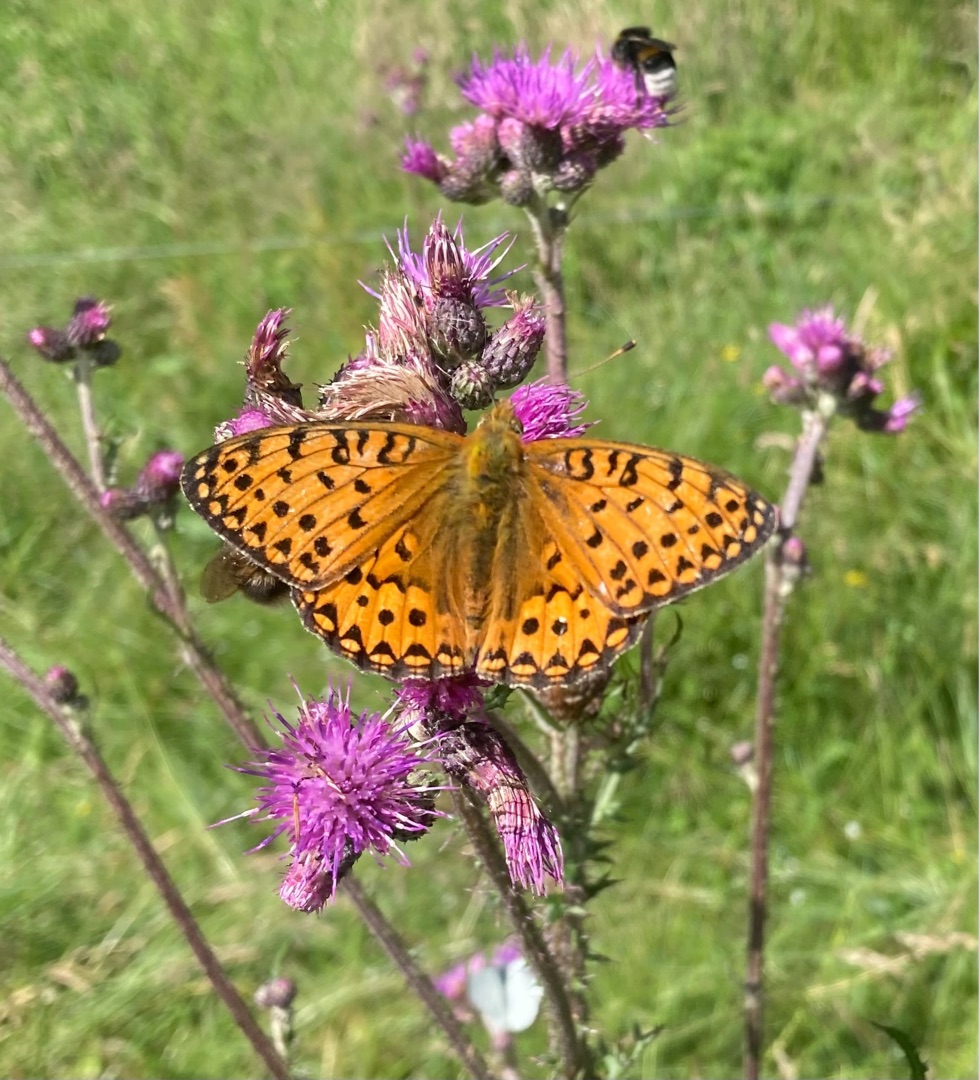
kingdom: Animalia
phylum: Arthropoda
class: Insecta
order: Lepidoptera
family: Nymphalidae
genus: Speyeria
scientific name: Speyeria aglaja
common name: Markperlemorsommerfugl
